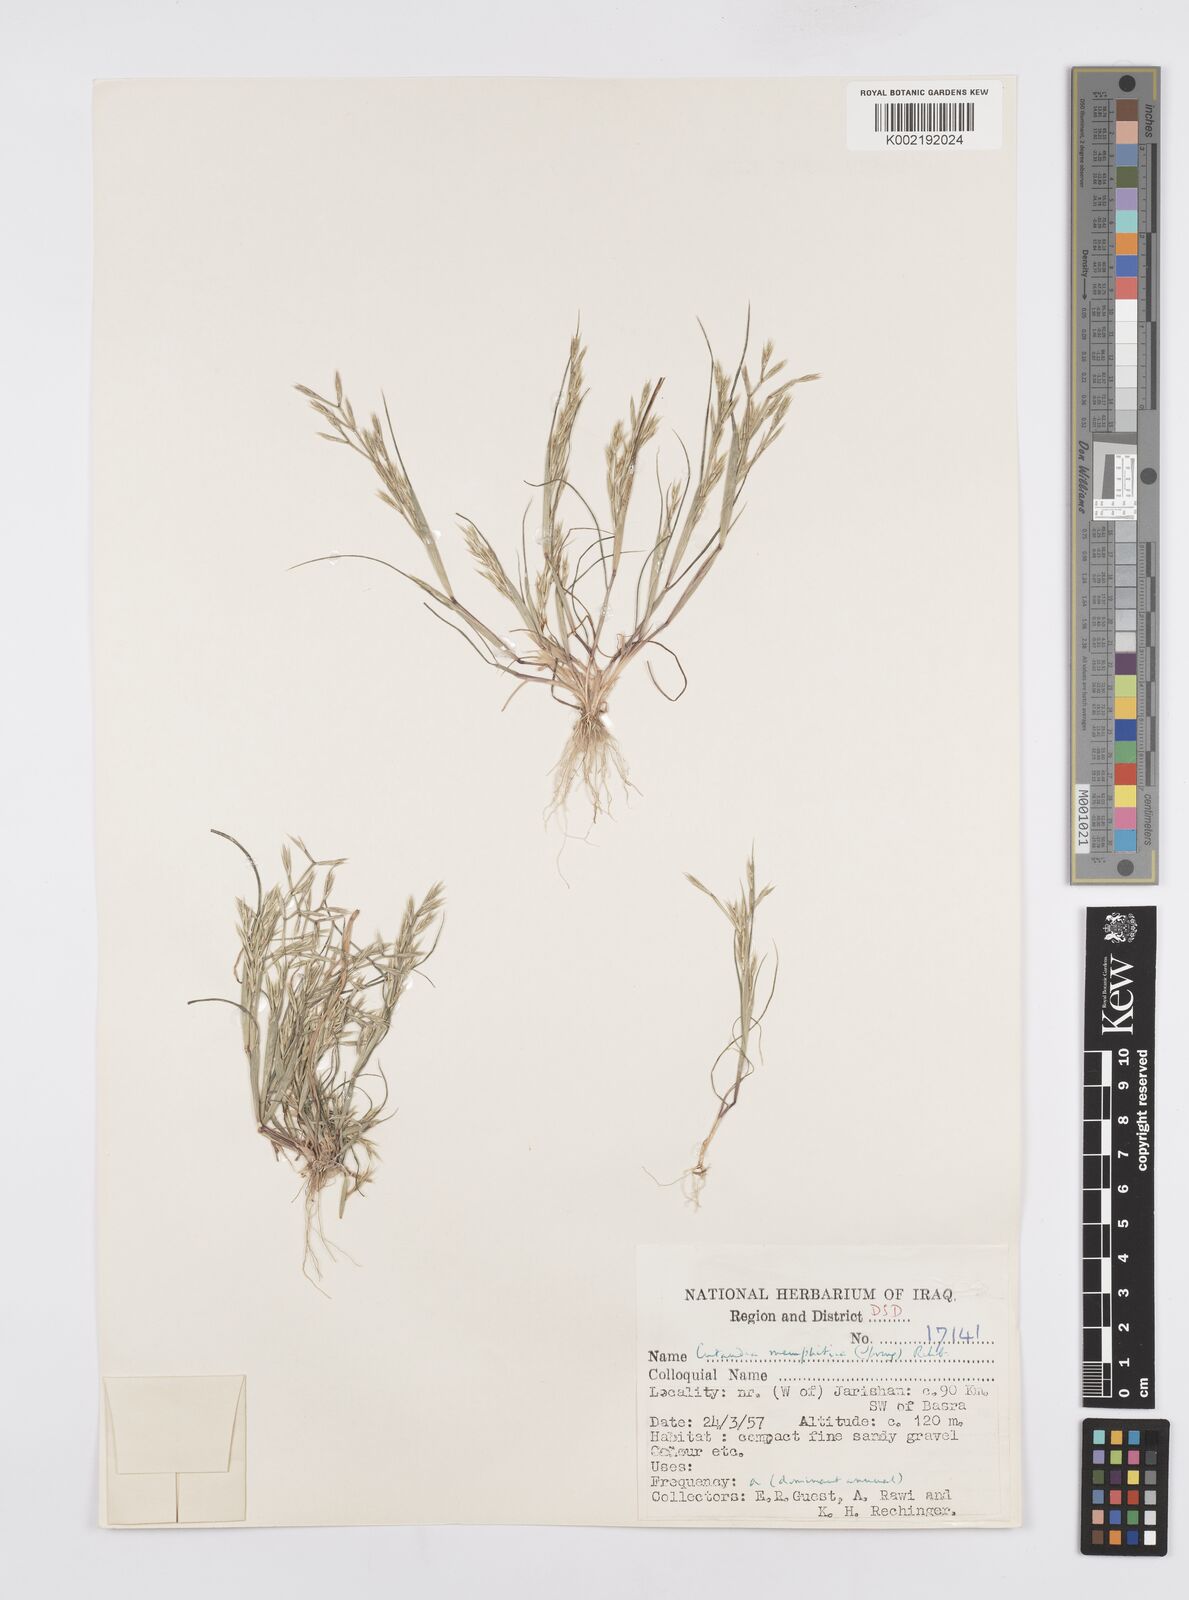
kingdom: Plantae
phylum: Tracheophyta
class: Liliopsida
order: Poales
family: Poaceae
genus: Cutandia
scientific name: Cutandia memphitica
